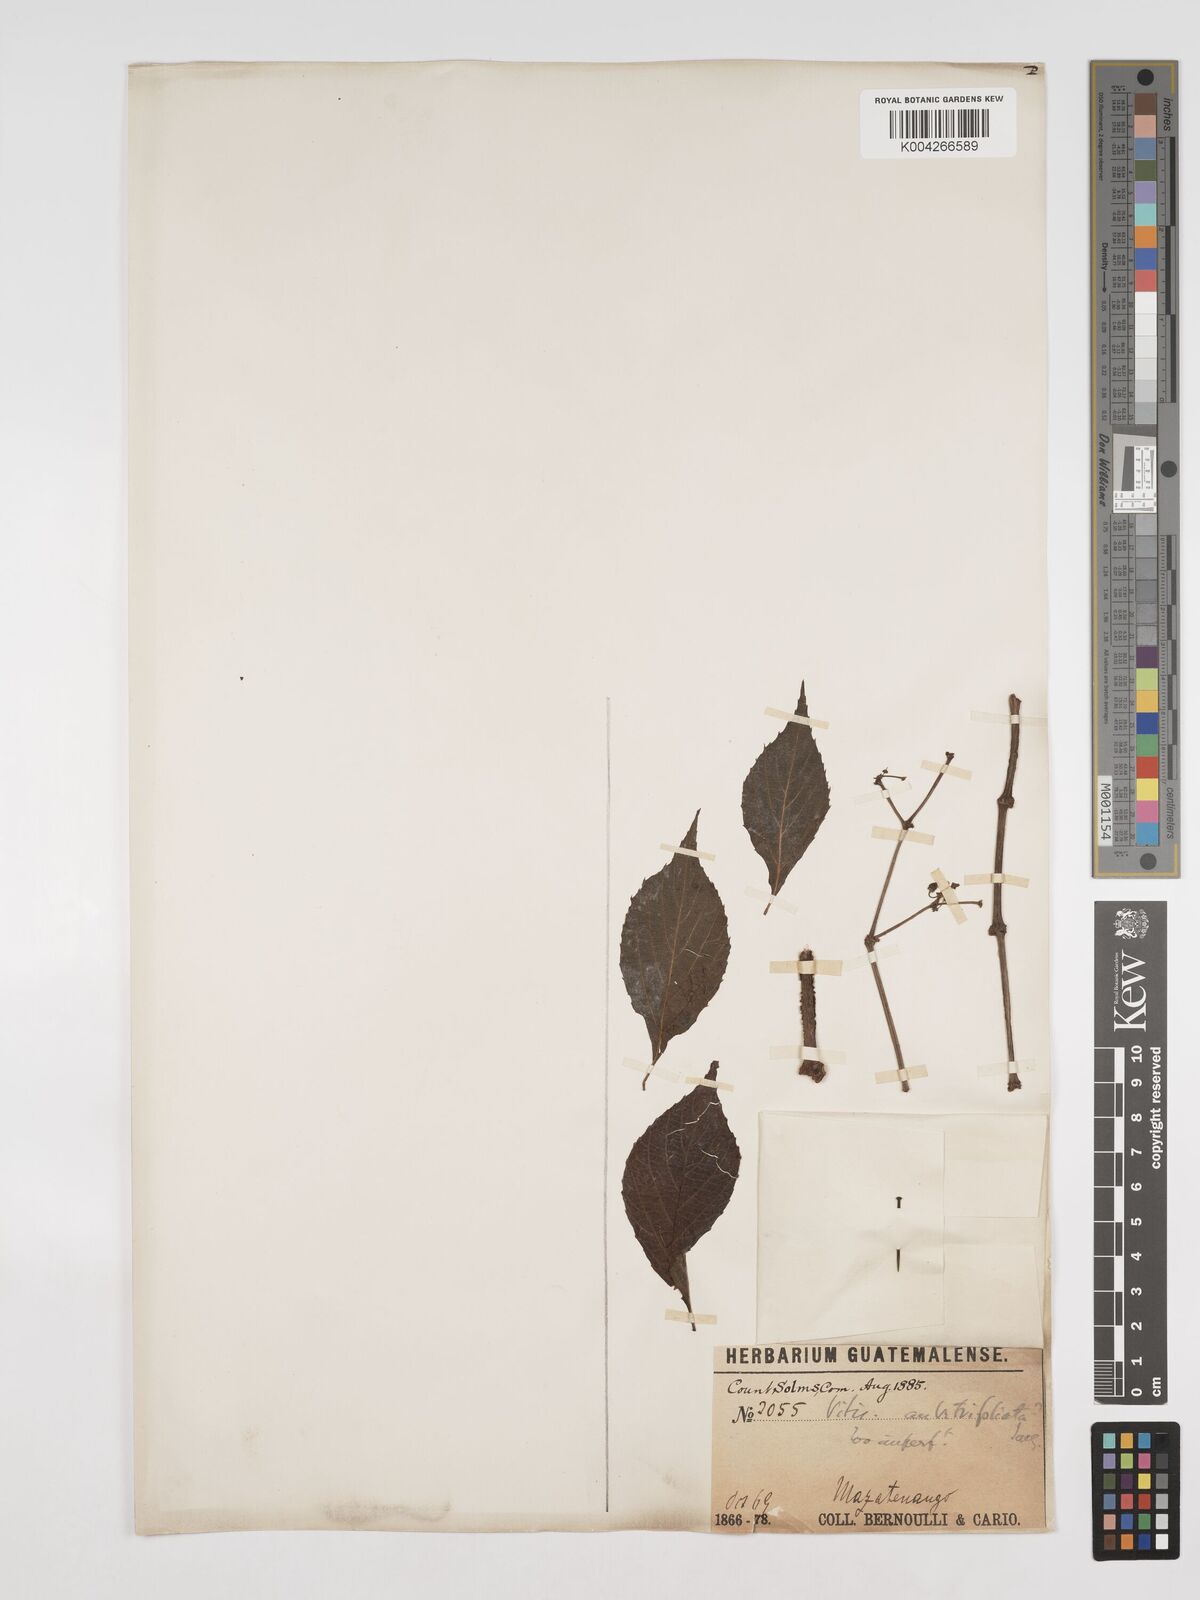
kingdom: Plantae
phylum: Tracheophyta
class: Magnoliopsida
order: Vitales
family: Vitaceae
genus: Cissus
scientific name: Cissus microcarpa
